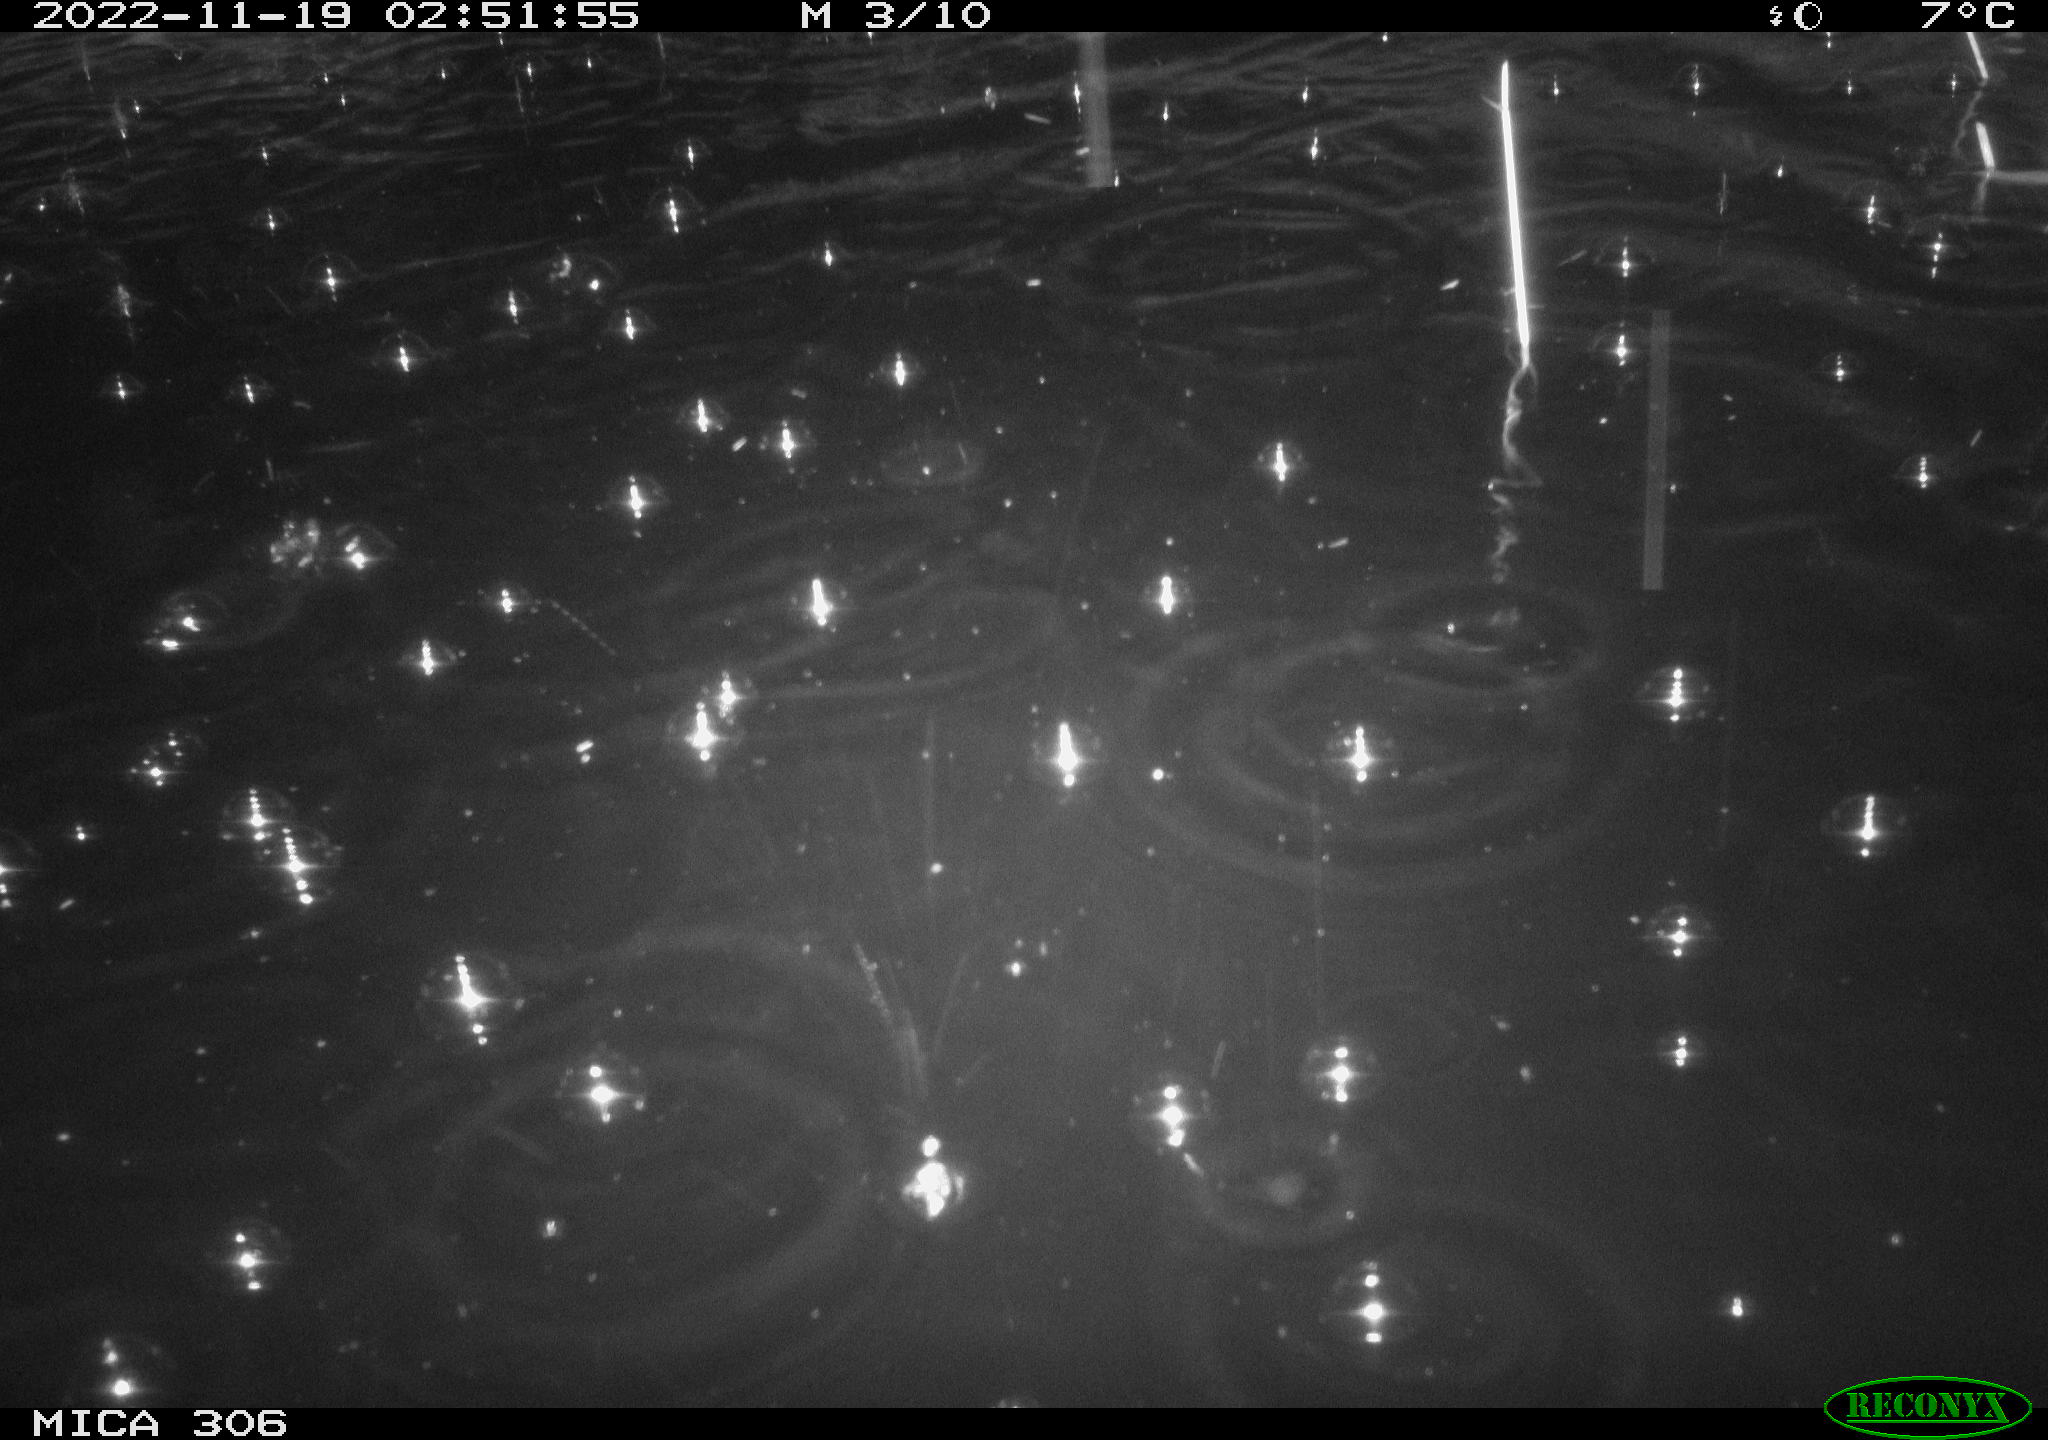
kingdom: Animalia
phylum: Chordata
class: Mammalia
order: Rodentia
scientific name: Rodentia
